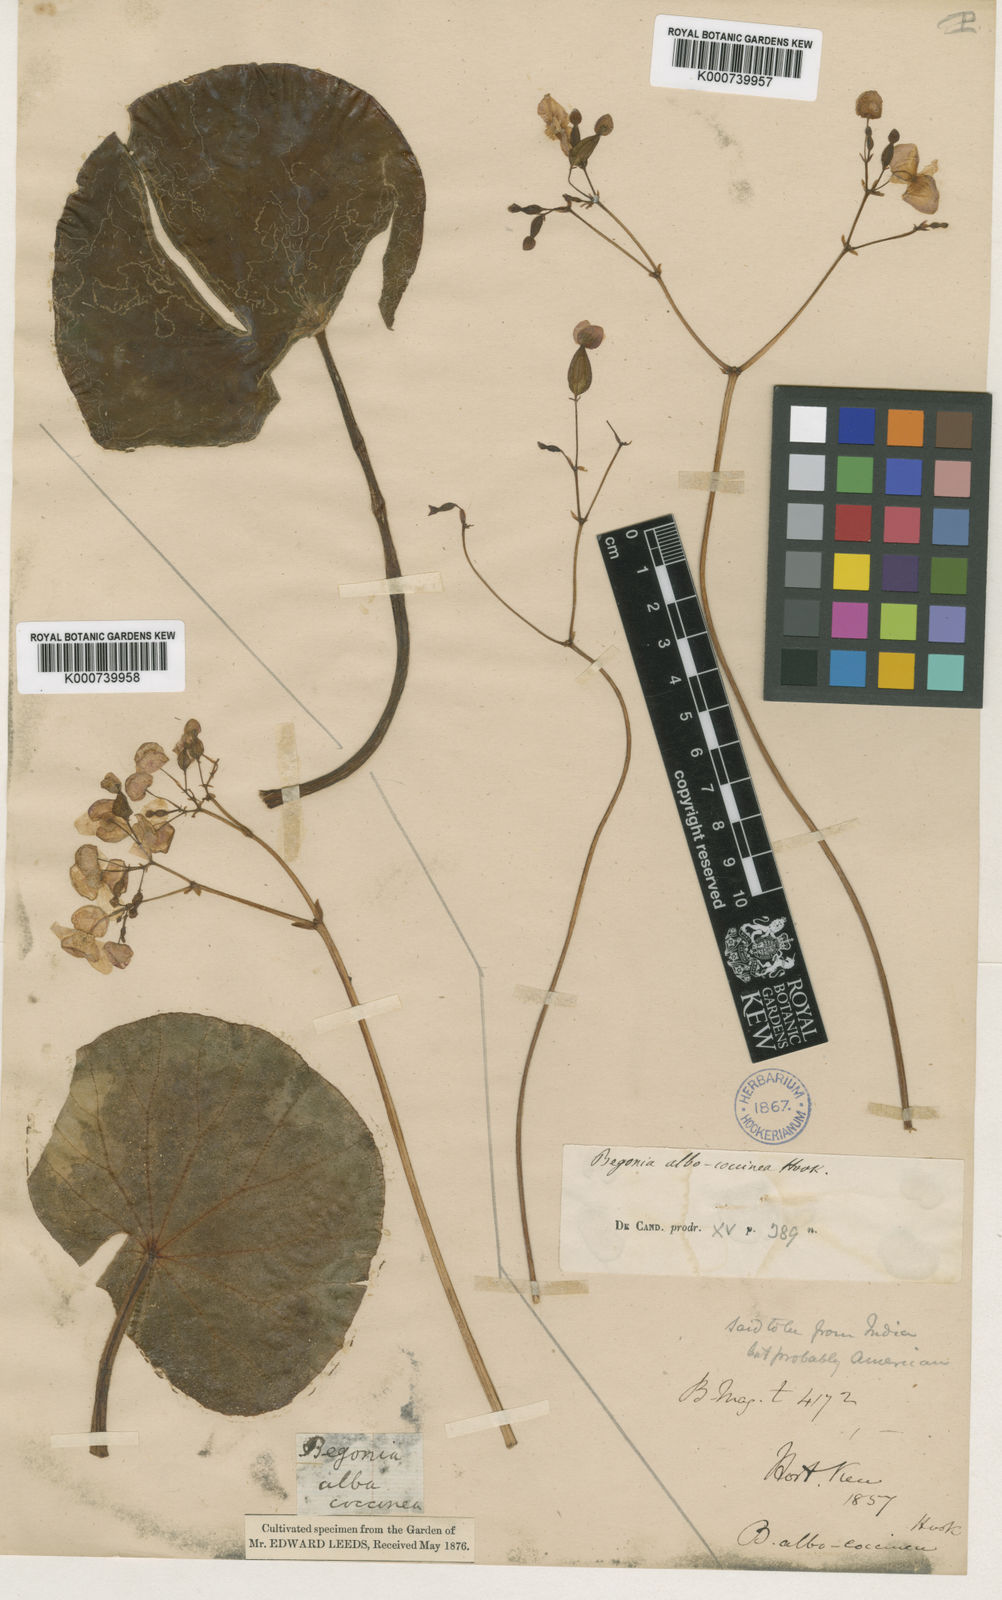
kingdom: Plantae
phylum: Tracheophyta
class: Magnoliopsida
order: Cucurbitales
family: Begoniaceae
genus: Begonia
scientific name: Begonia albococcinea
